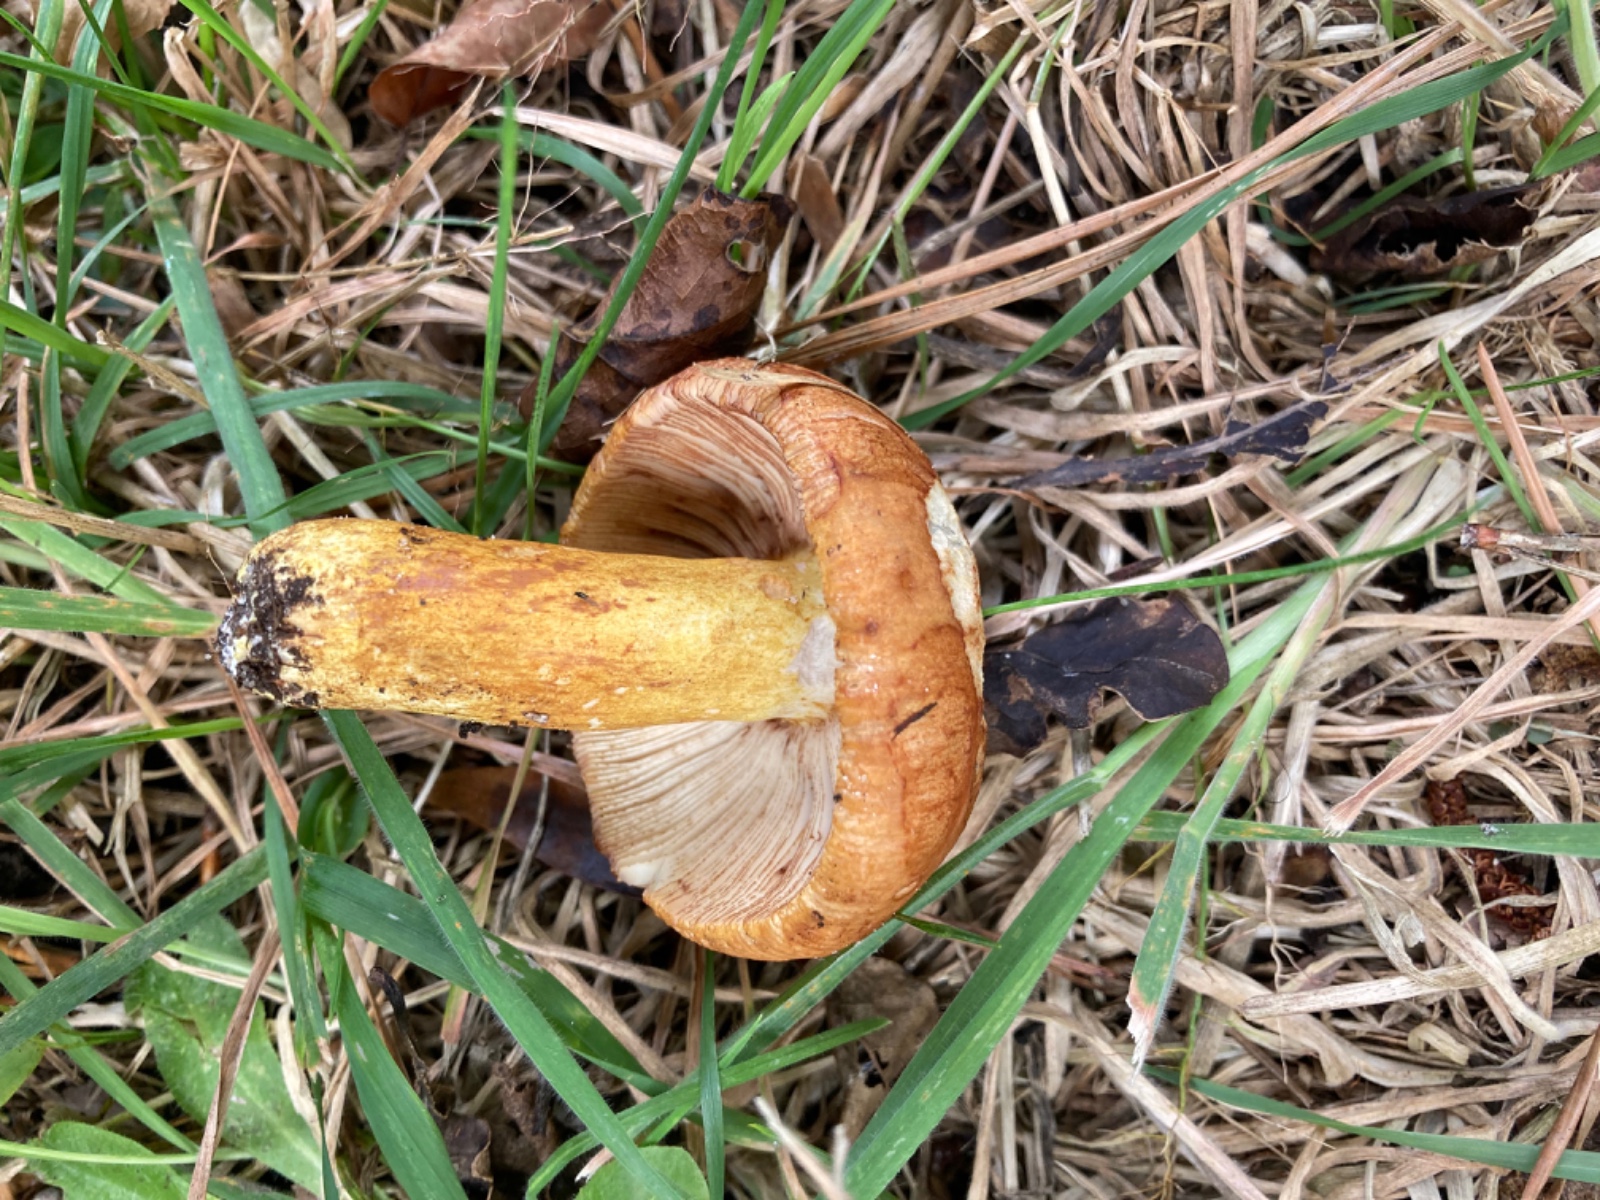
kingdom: Fungi
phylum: Basidiomycota
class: Agaricomycetes
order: Russulales
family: Russulaceae
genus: Russula
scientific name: Russula
